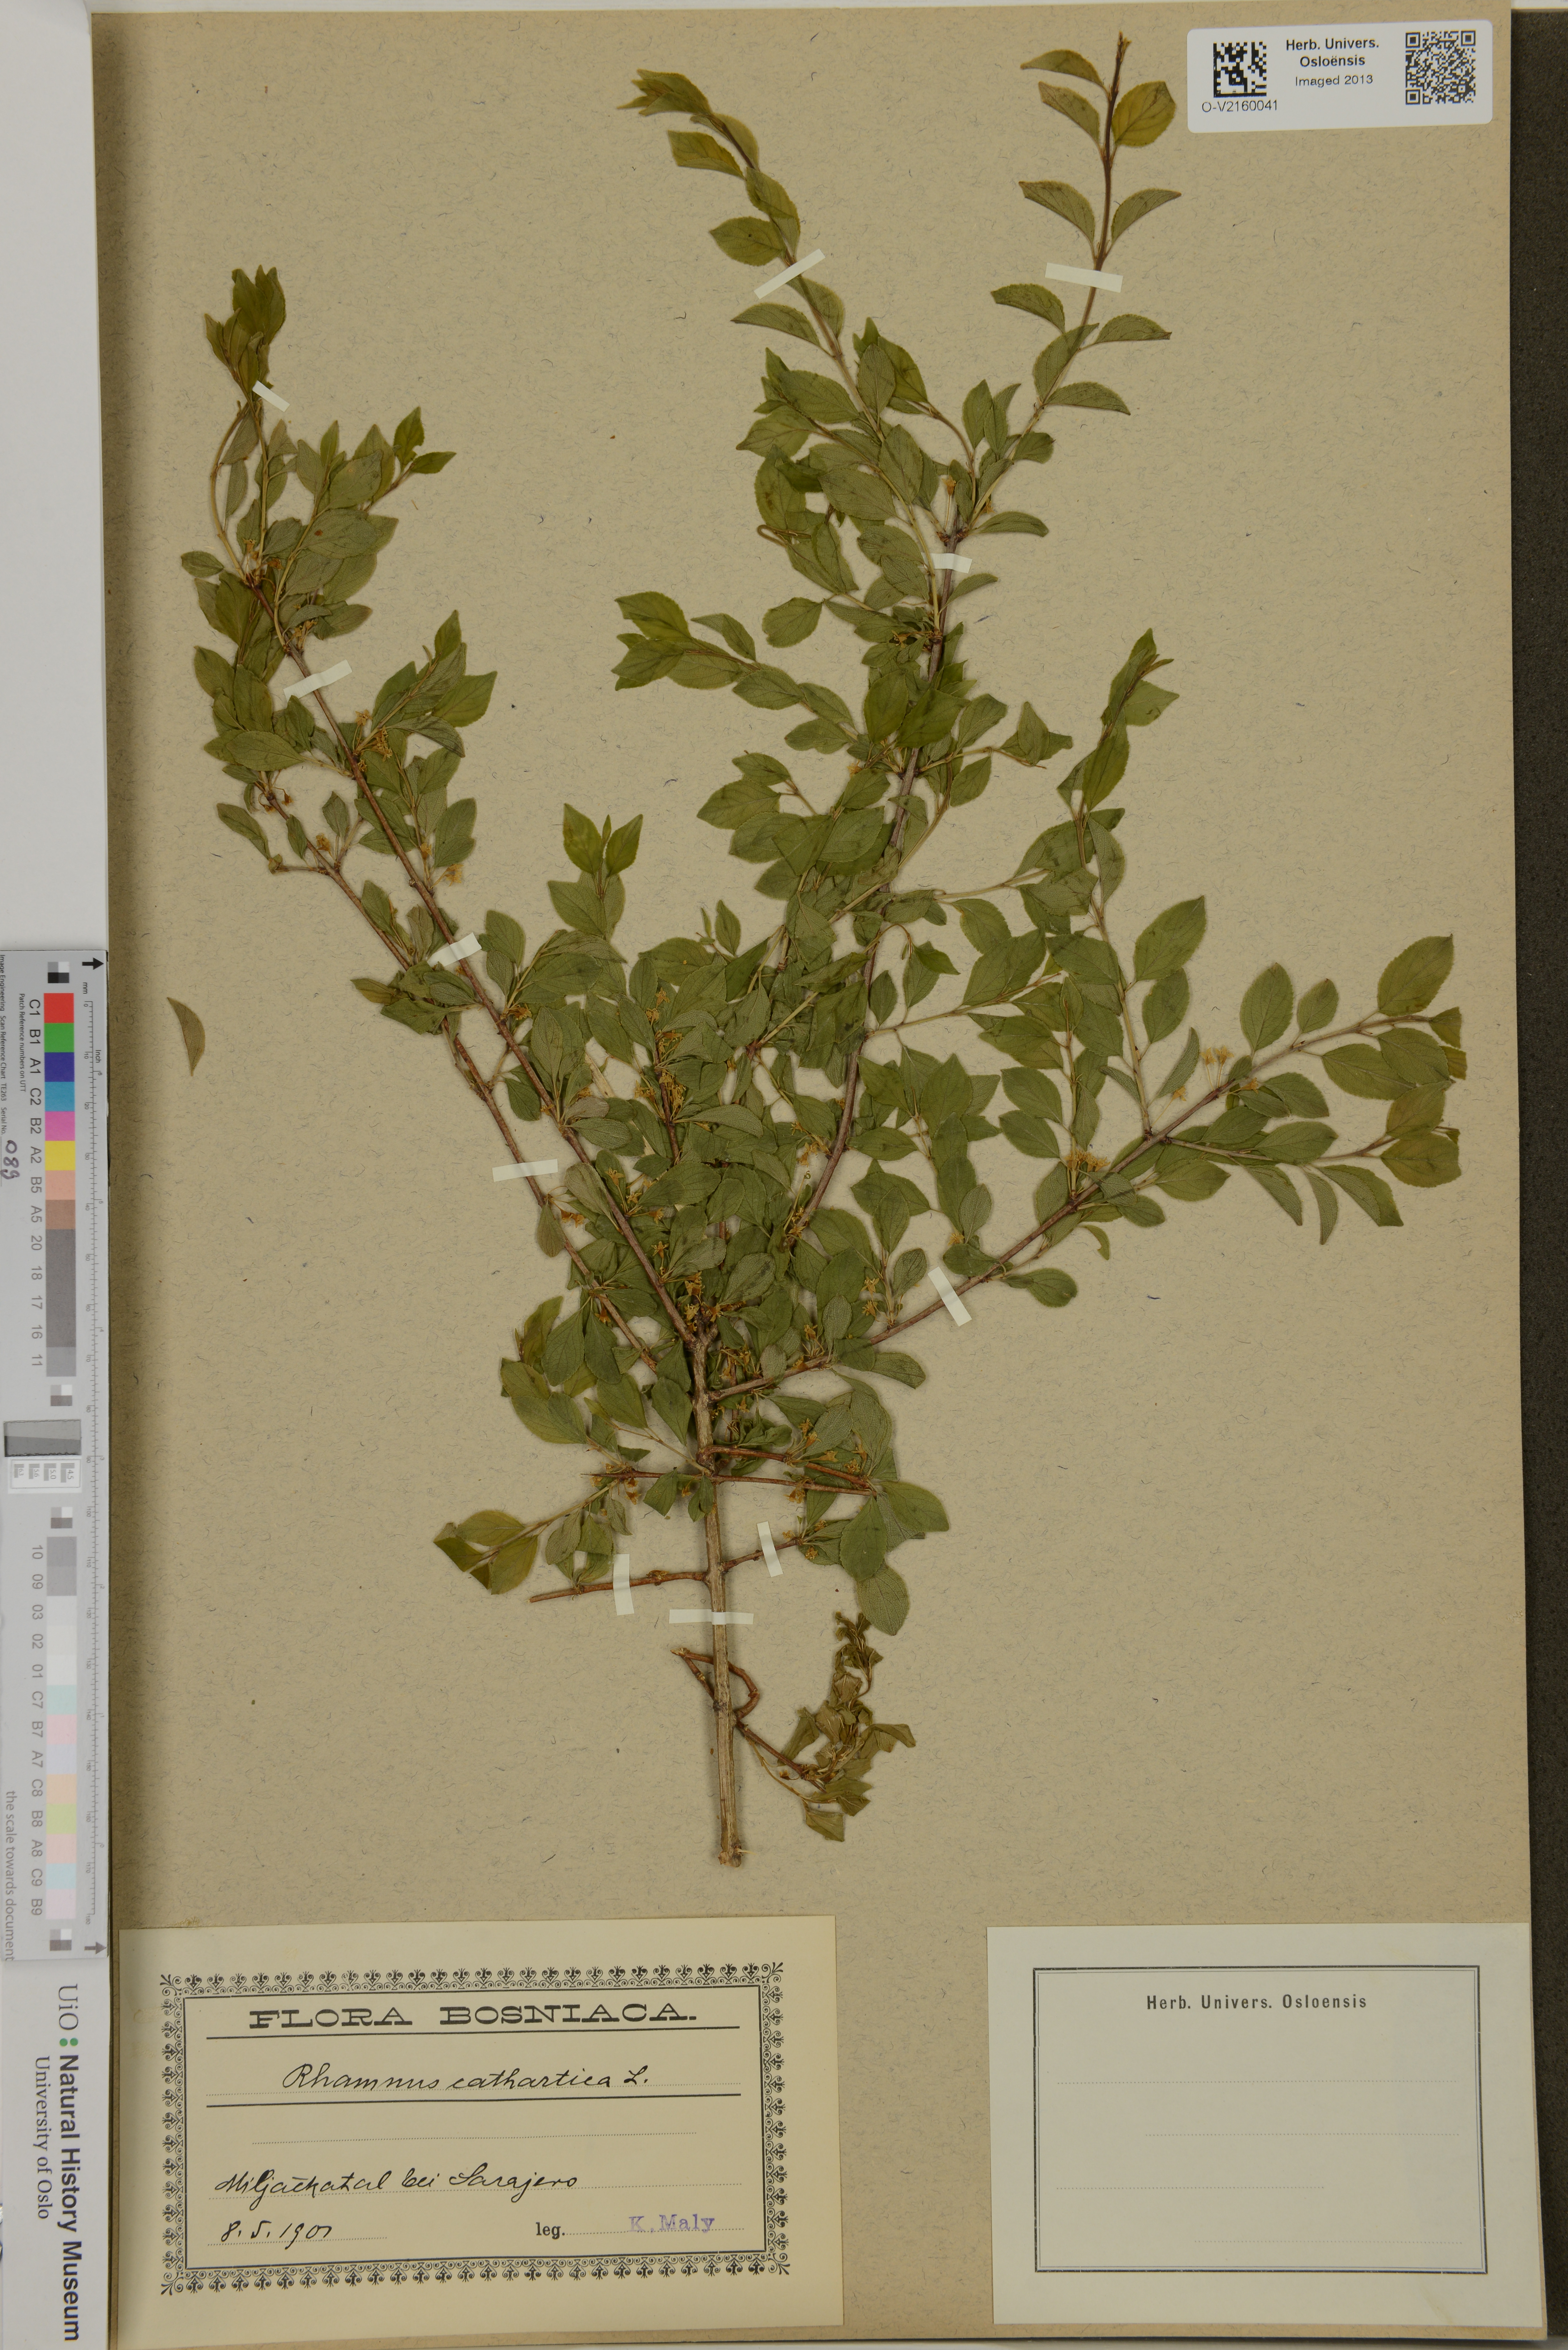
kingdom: Plantae
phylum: Tracheophyta
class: Magnoliopsida
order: Rosales
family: Rhamnaceae
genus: Rhamnus
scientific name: Rhamnus cathartica
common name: Common buckthorn
